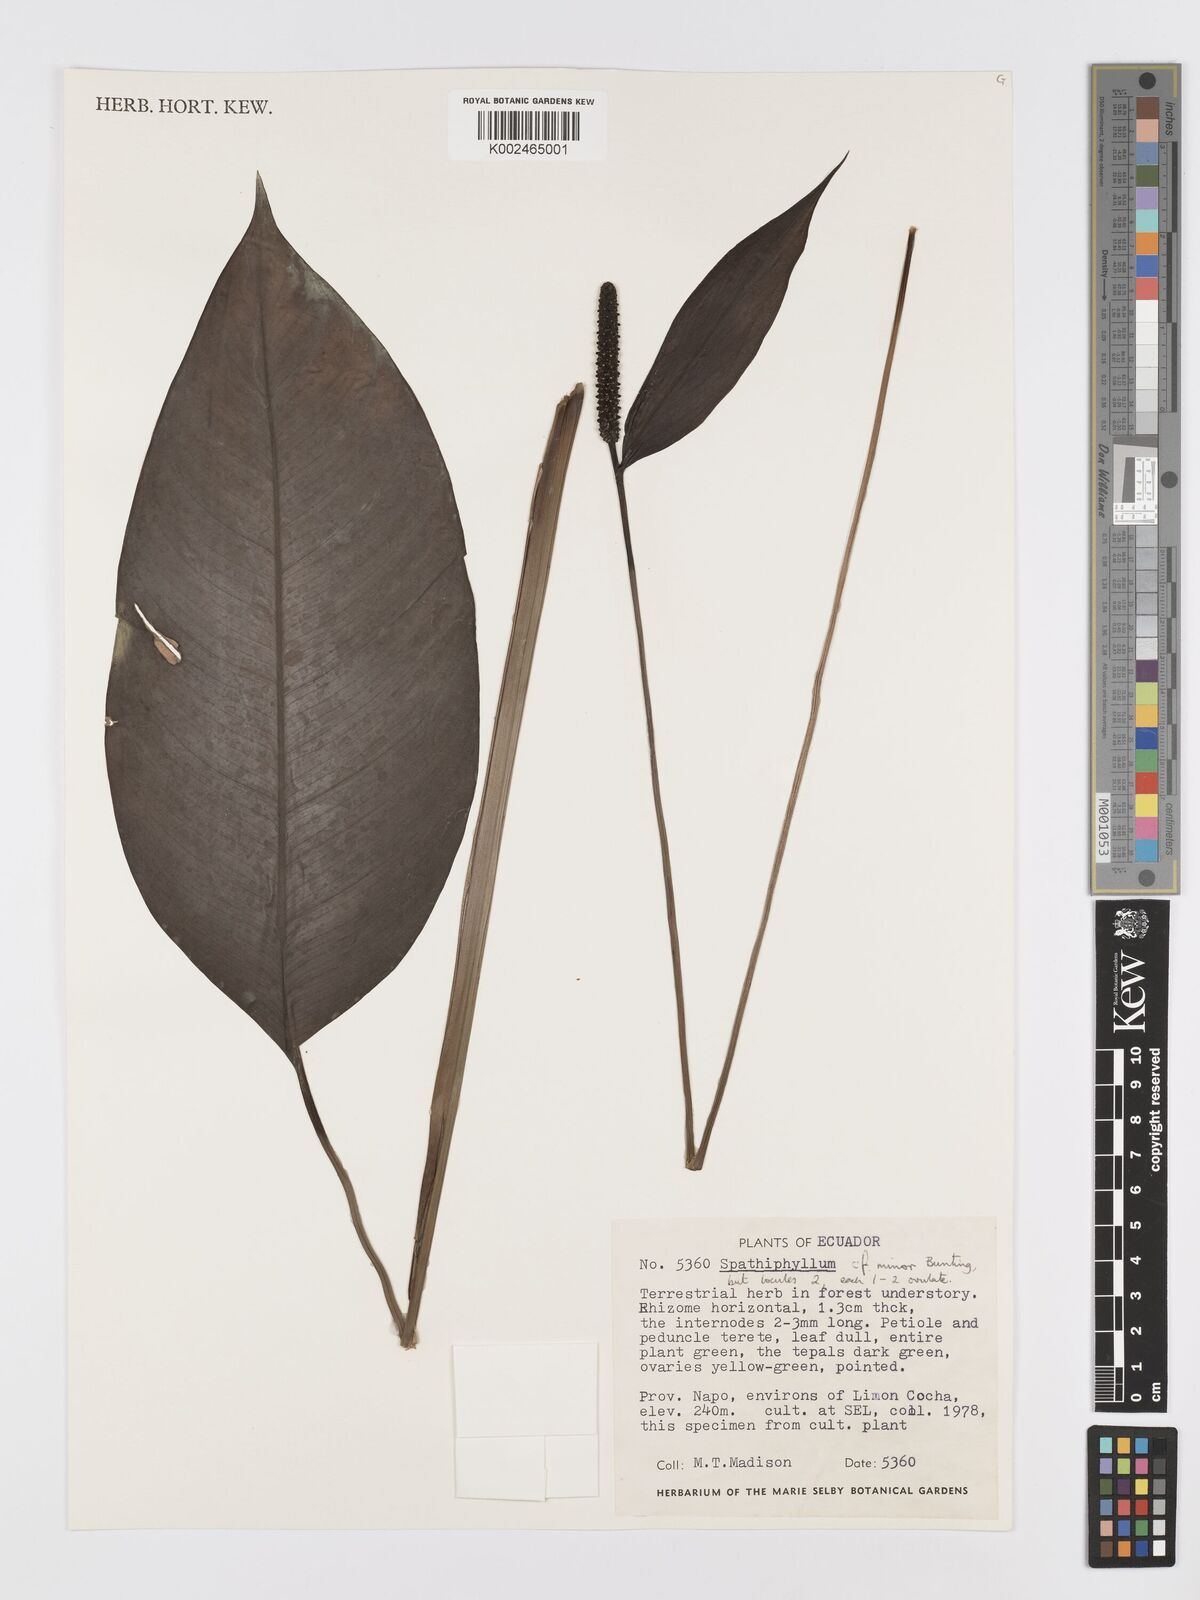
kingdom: Plantae
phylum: Tracheophyta
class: Liliopsida
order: Alismatales
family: Araceae
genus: Spathiphyllum
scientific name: Spathiphyllum minus
